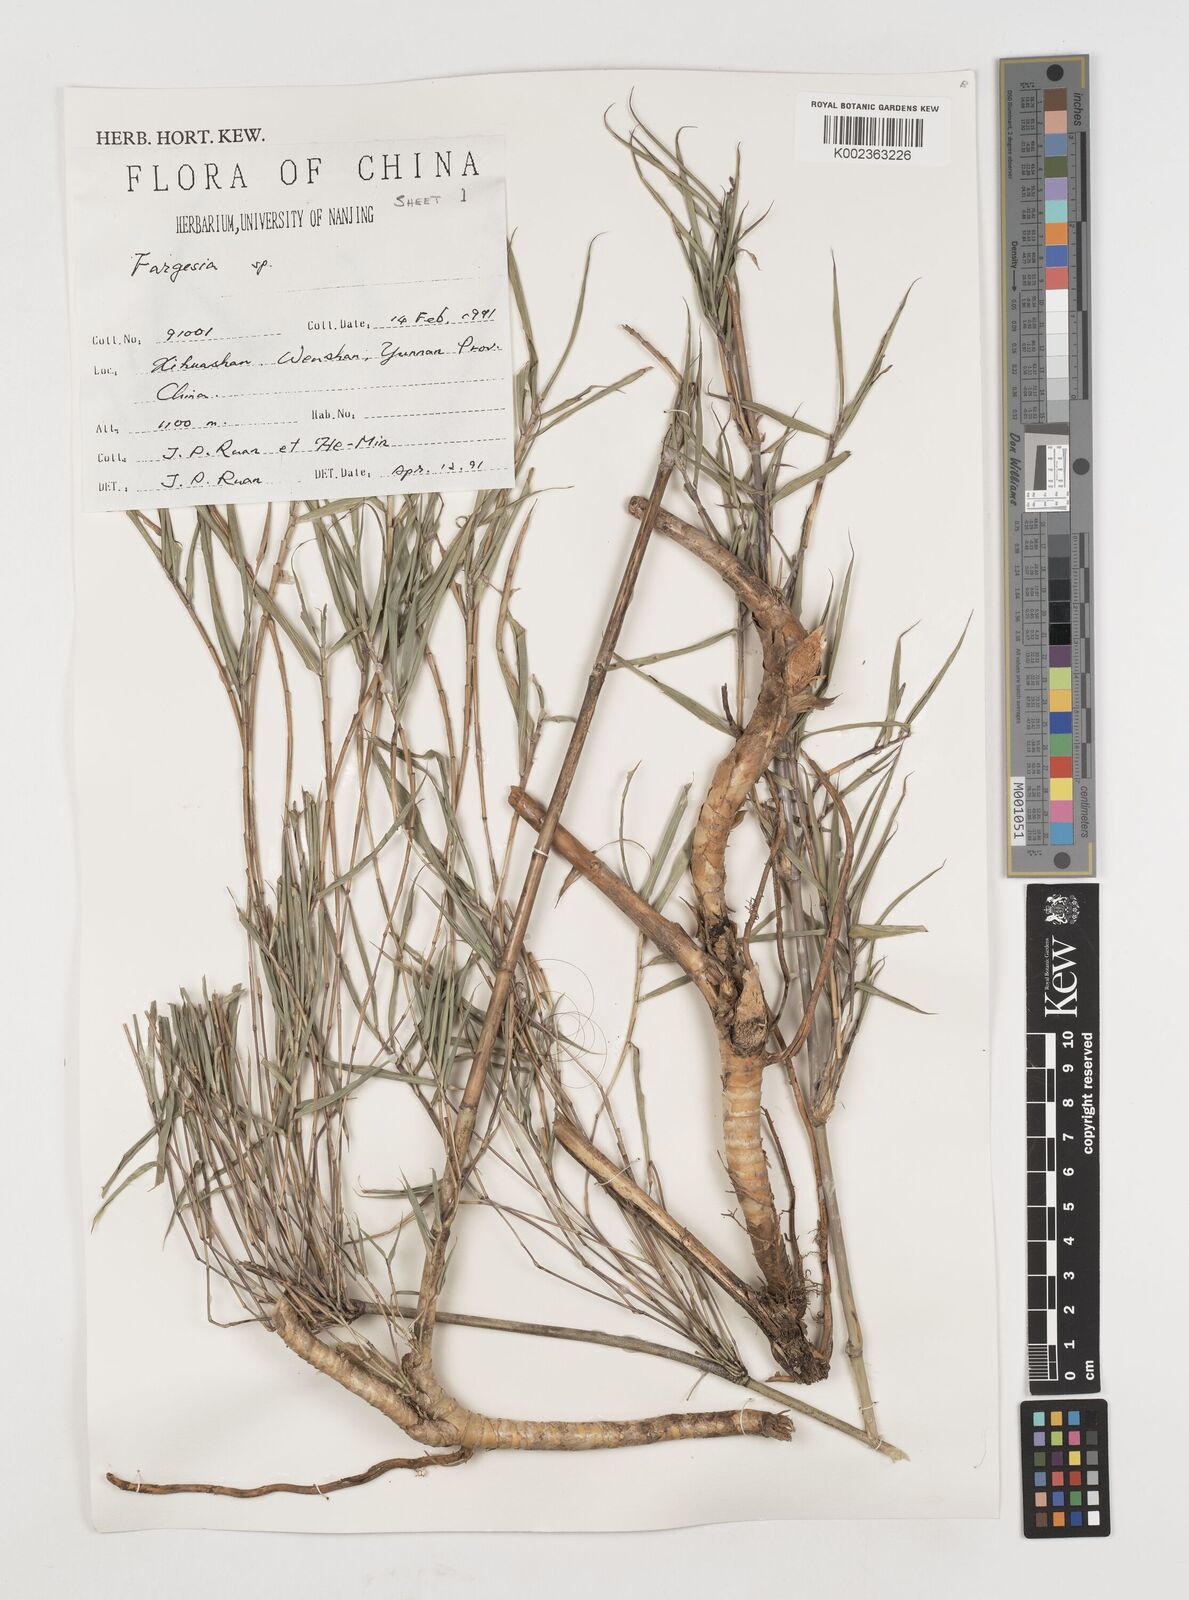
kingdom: Plantae
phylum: Tracheophyta
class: Liliopsida
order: Poales
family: Poaceae
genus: Fargesia
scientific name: Fargesia
